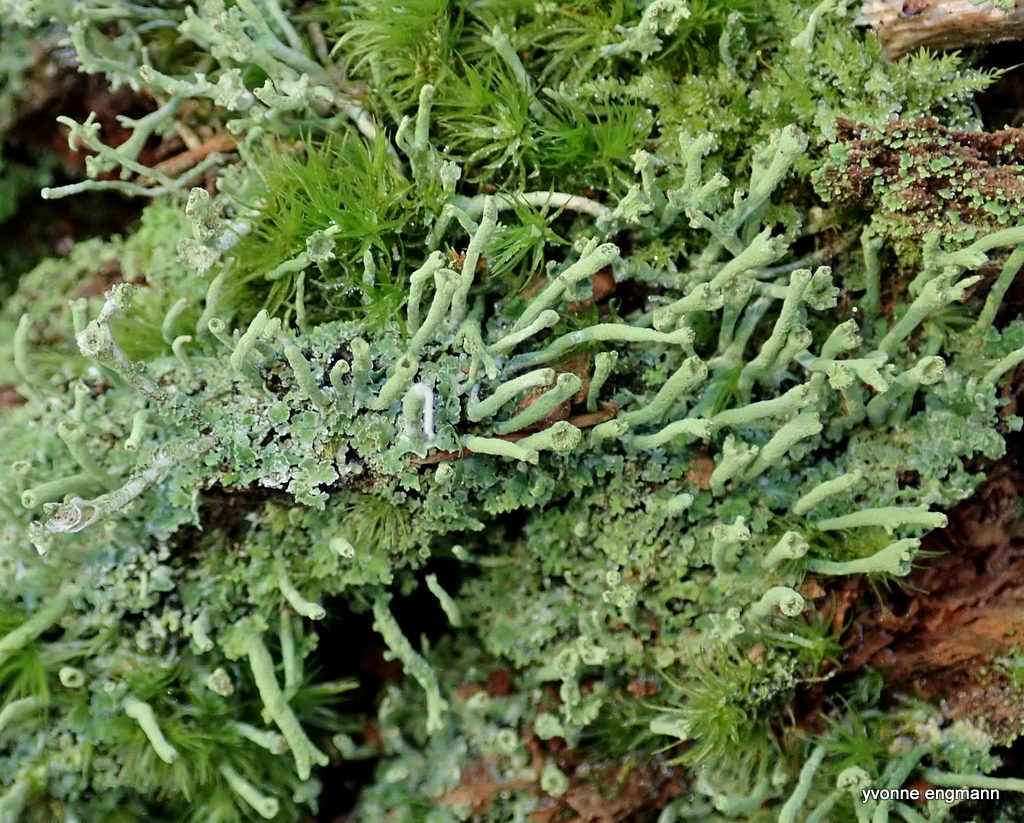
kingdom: Fungi
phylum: Ascomycota
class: Lecanoromycetes
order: Lecanorales
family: Cladoniaceae
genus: Cladonia
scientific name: Cladonia ochrochlora
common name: stød-bægerlav
